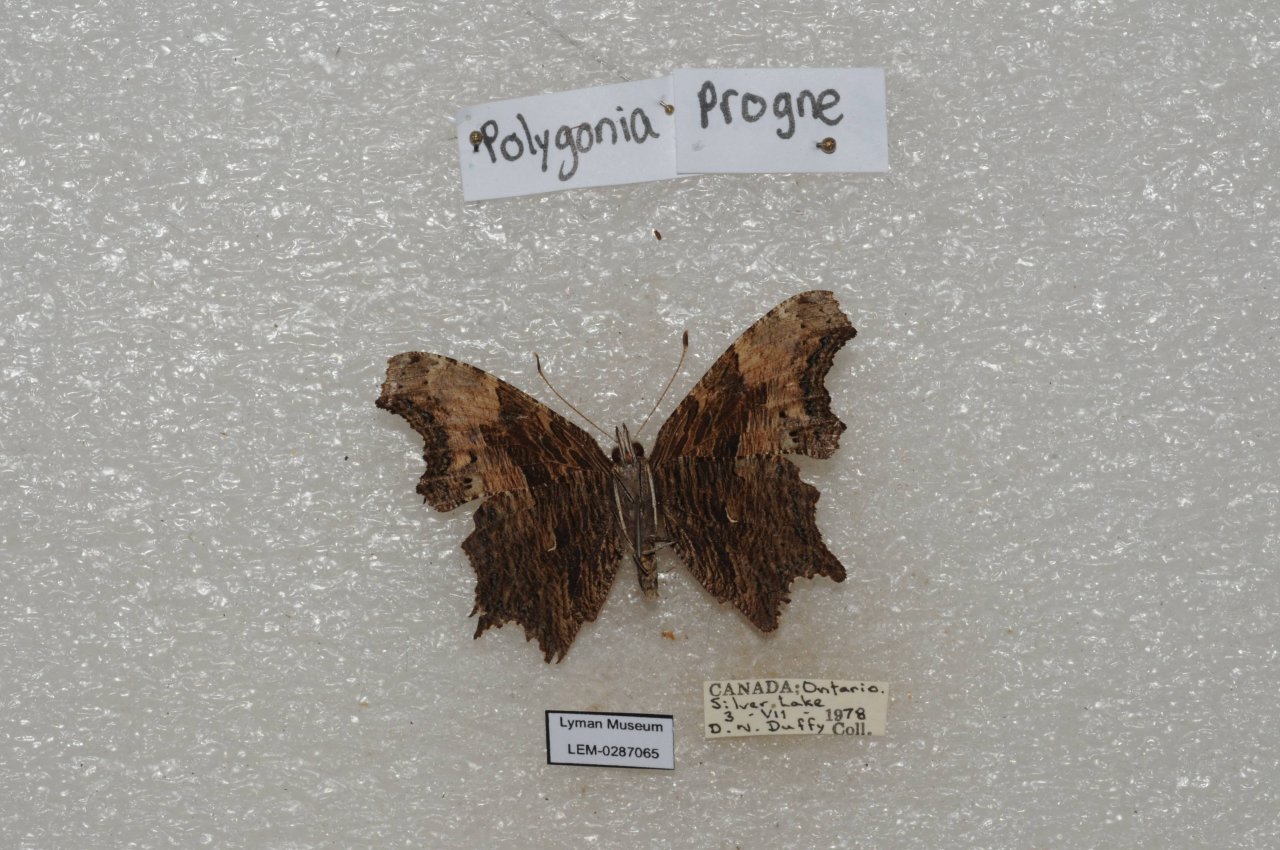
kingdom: Animalia
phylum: Arthropoda
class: Insecta
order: Lepidoptera
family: Nymphalidae
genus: Polygonia
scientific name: Polygonia progne
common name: Gray Comma
